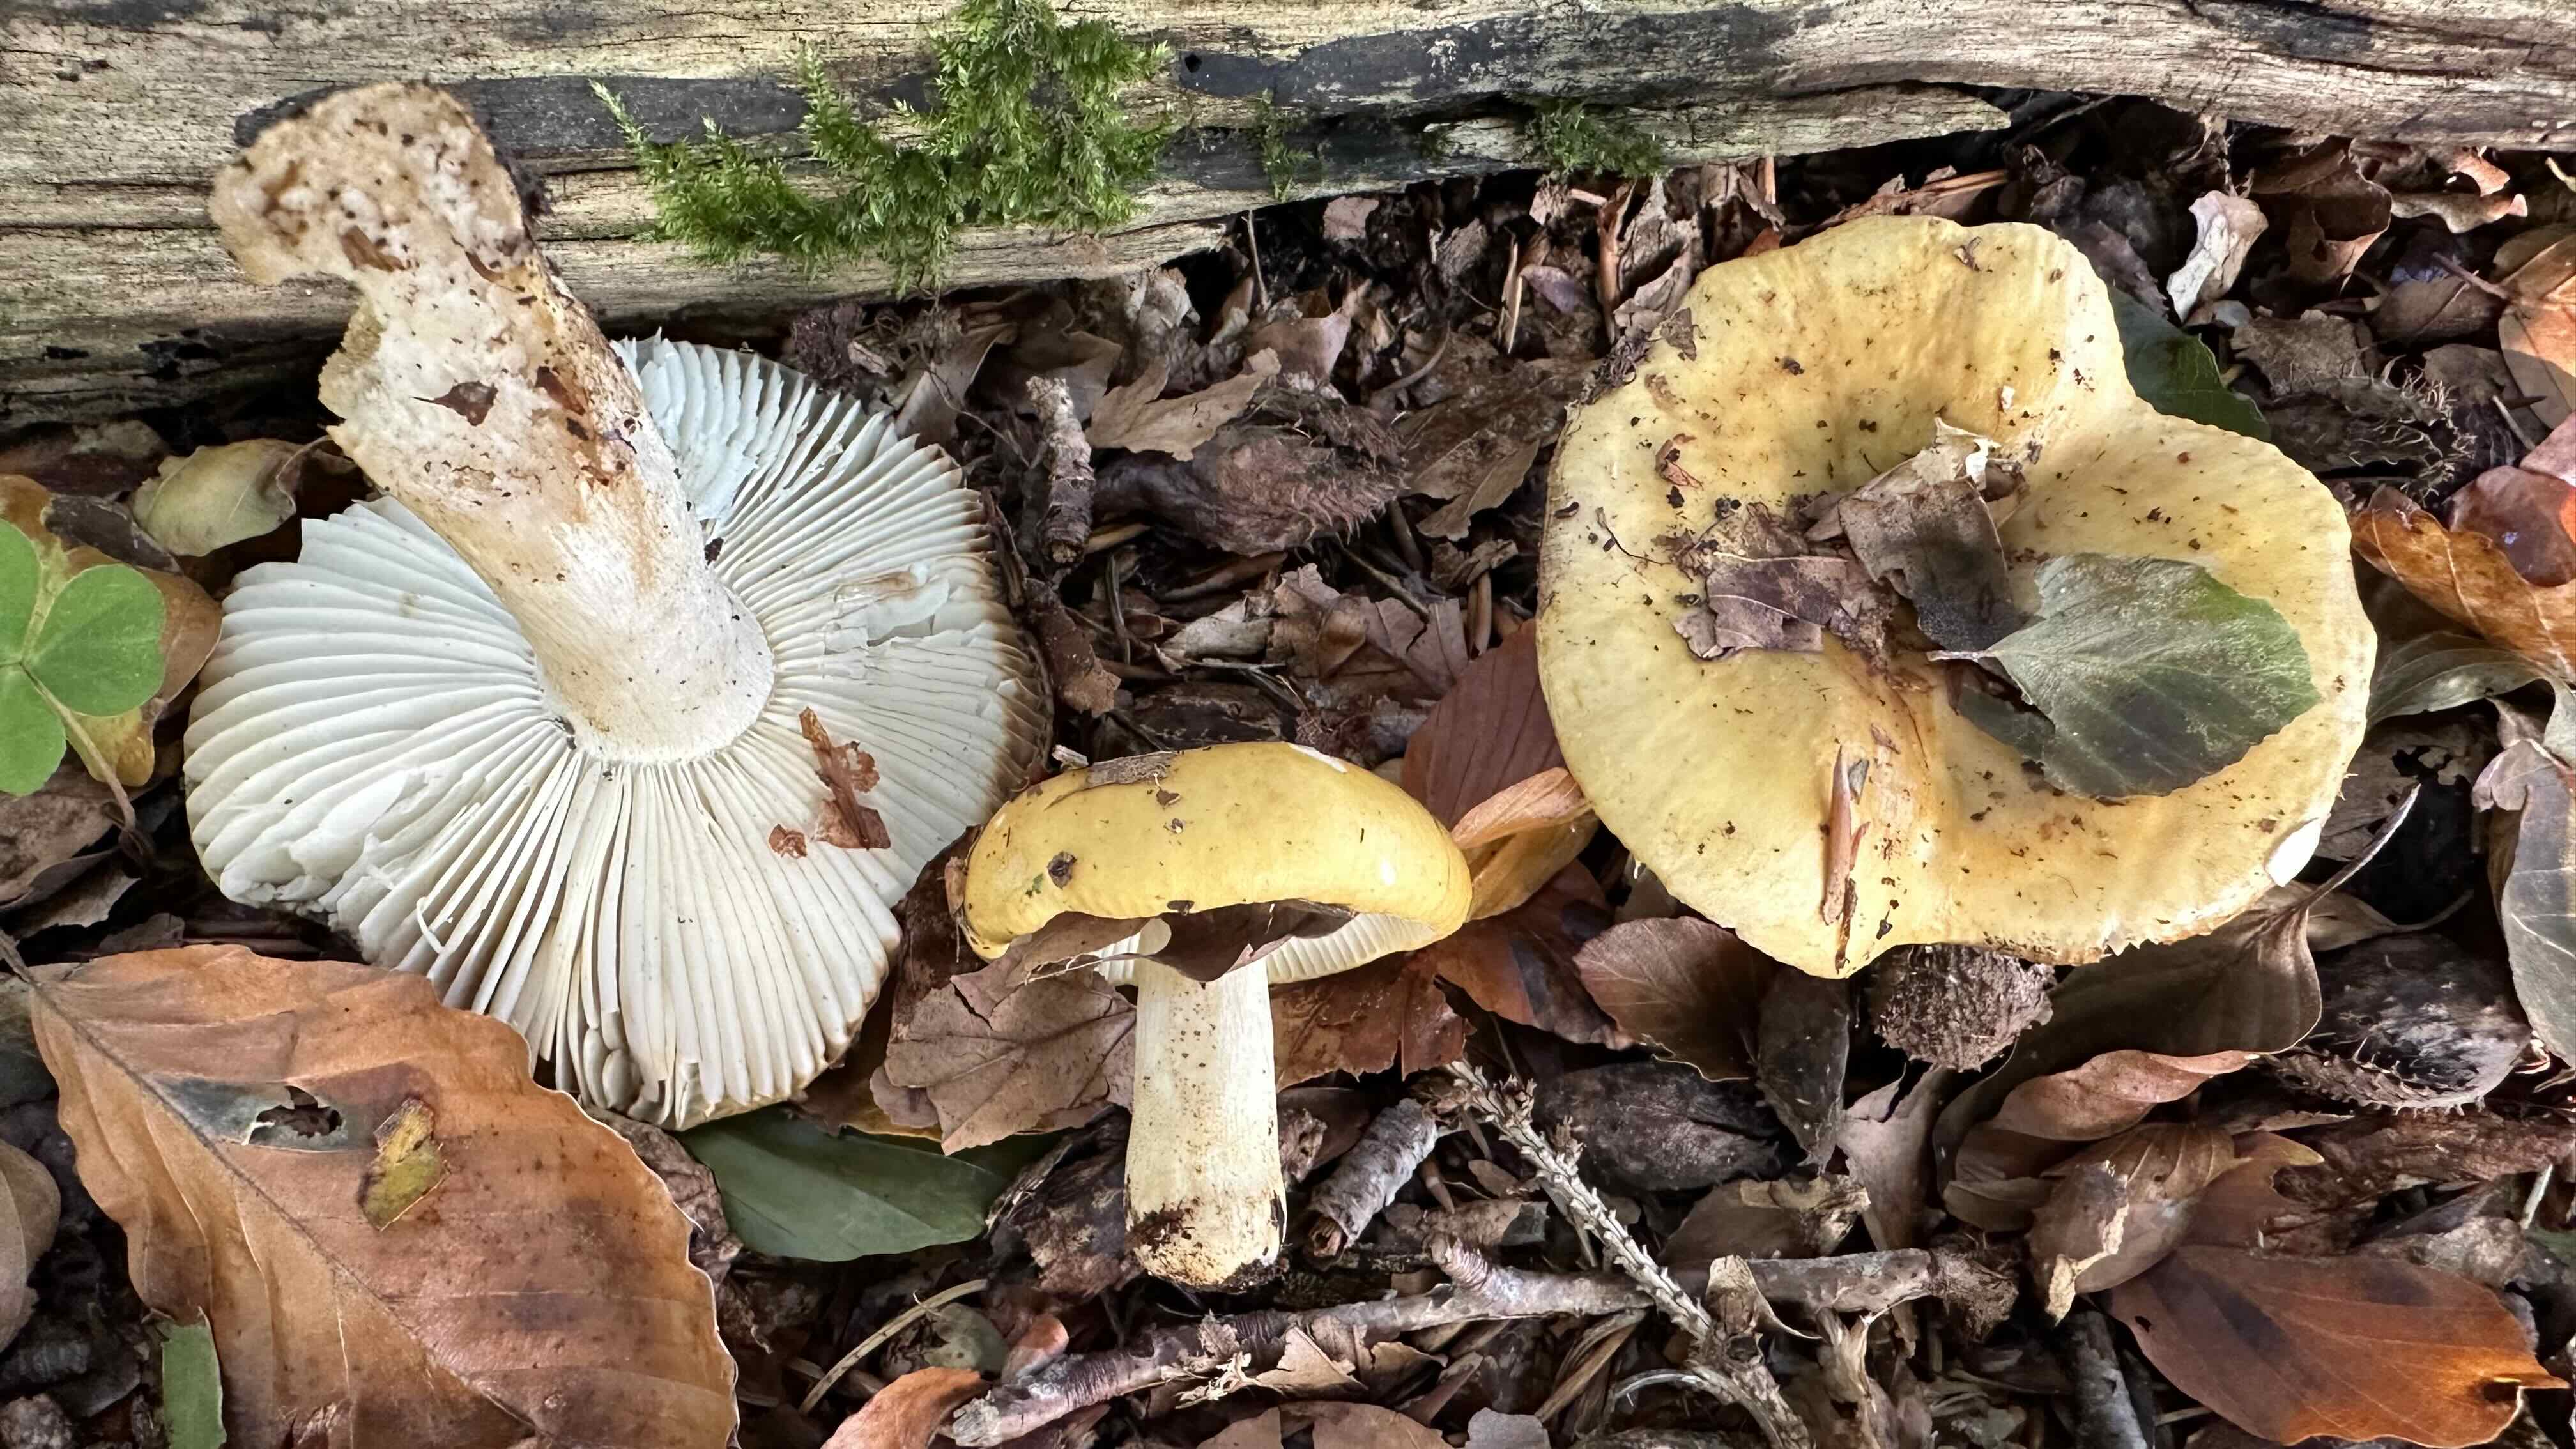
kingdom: Fungi
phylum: Basidiomycota
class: Agaricomycetes
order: Russulales
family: Russulaceae
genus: Russula
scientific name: Russula ochroleuca
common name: okkergul skørhat
